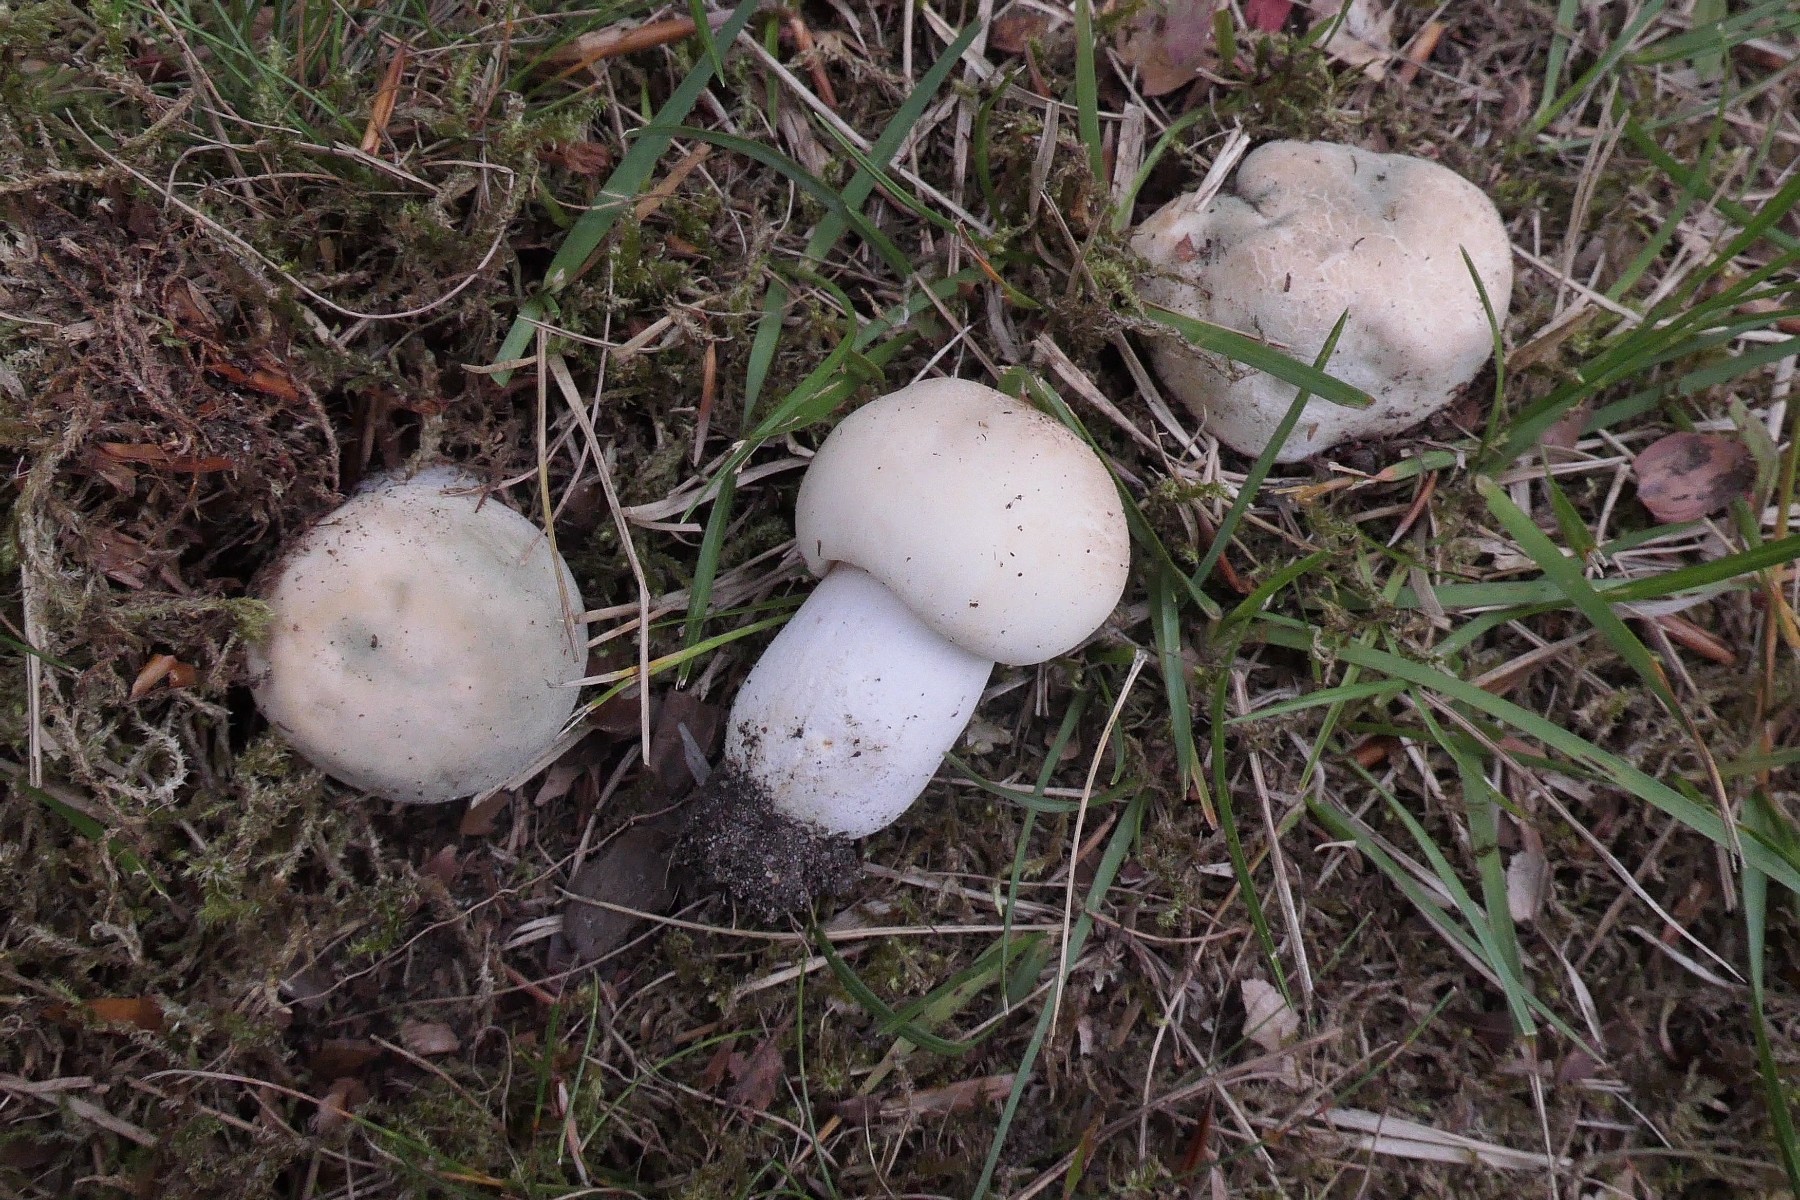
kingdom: Fungi
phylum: Basidiomycota
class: Agaricomycetes
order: Russulales
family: Russulaceae
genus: Russula
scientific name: Russula virescens
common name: spanskgrøn skørhat
